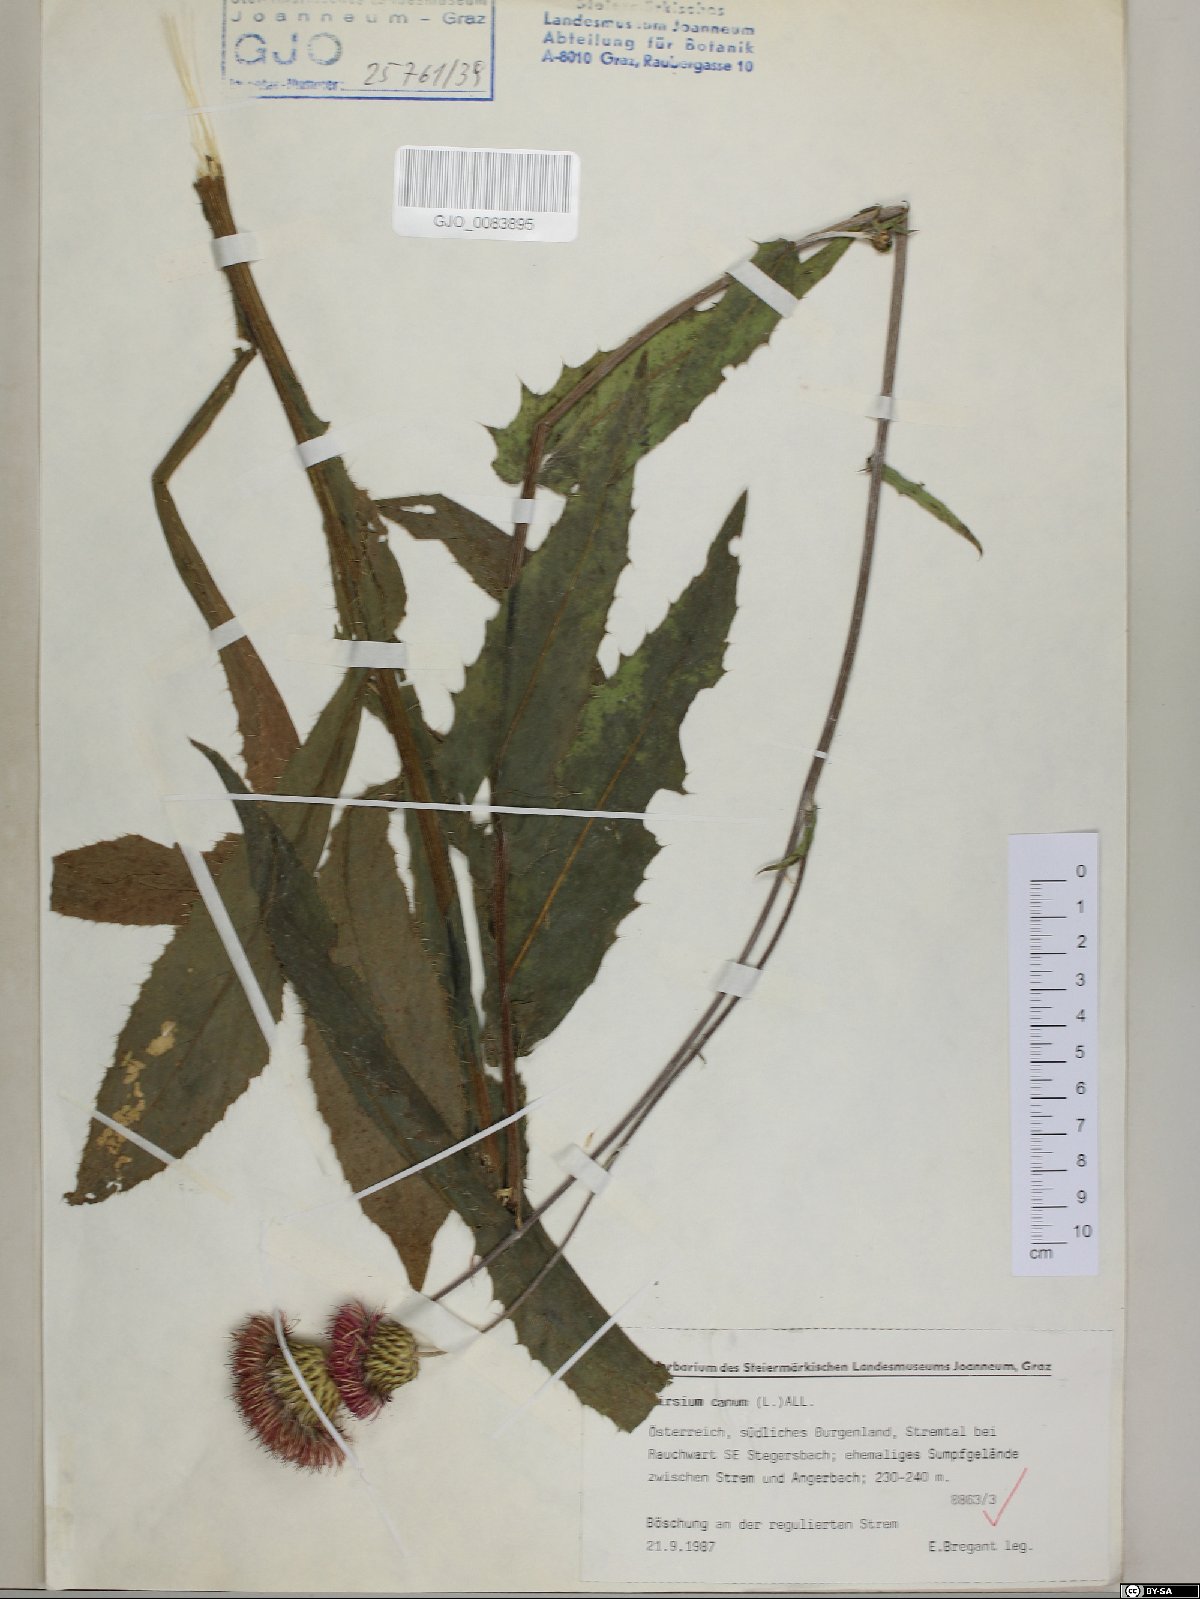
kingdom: Plantae
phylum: Tracheophyta
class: Magnoliopsida
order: Asterales
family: Asteraceae
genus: Cirsium
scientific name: Cirsium canum
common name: Queen anne's thistle
